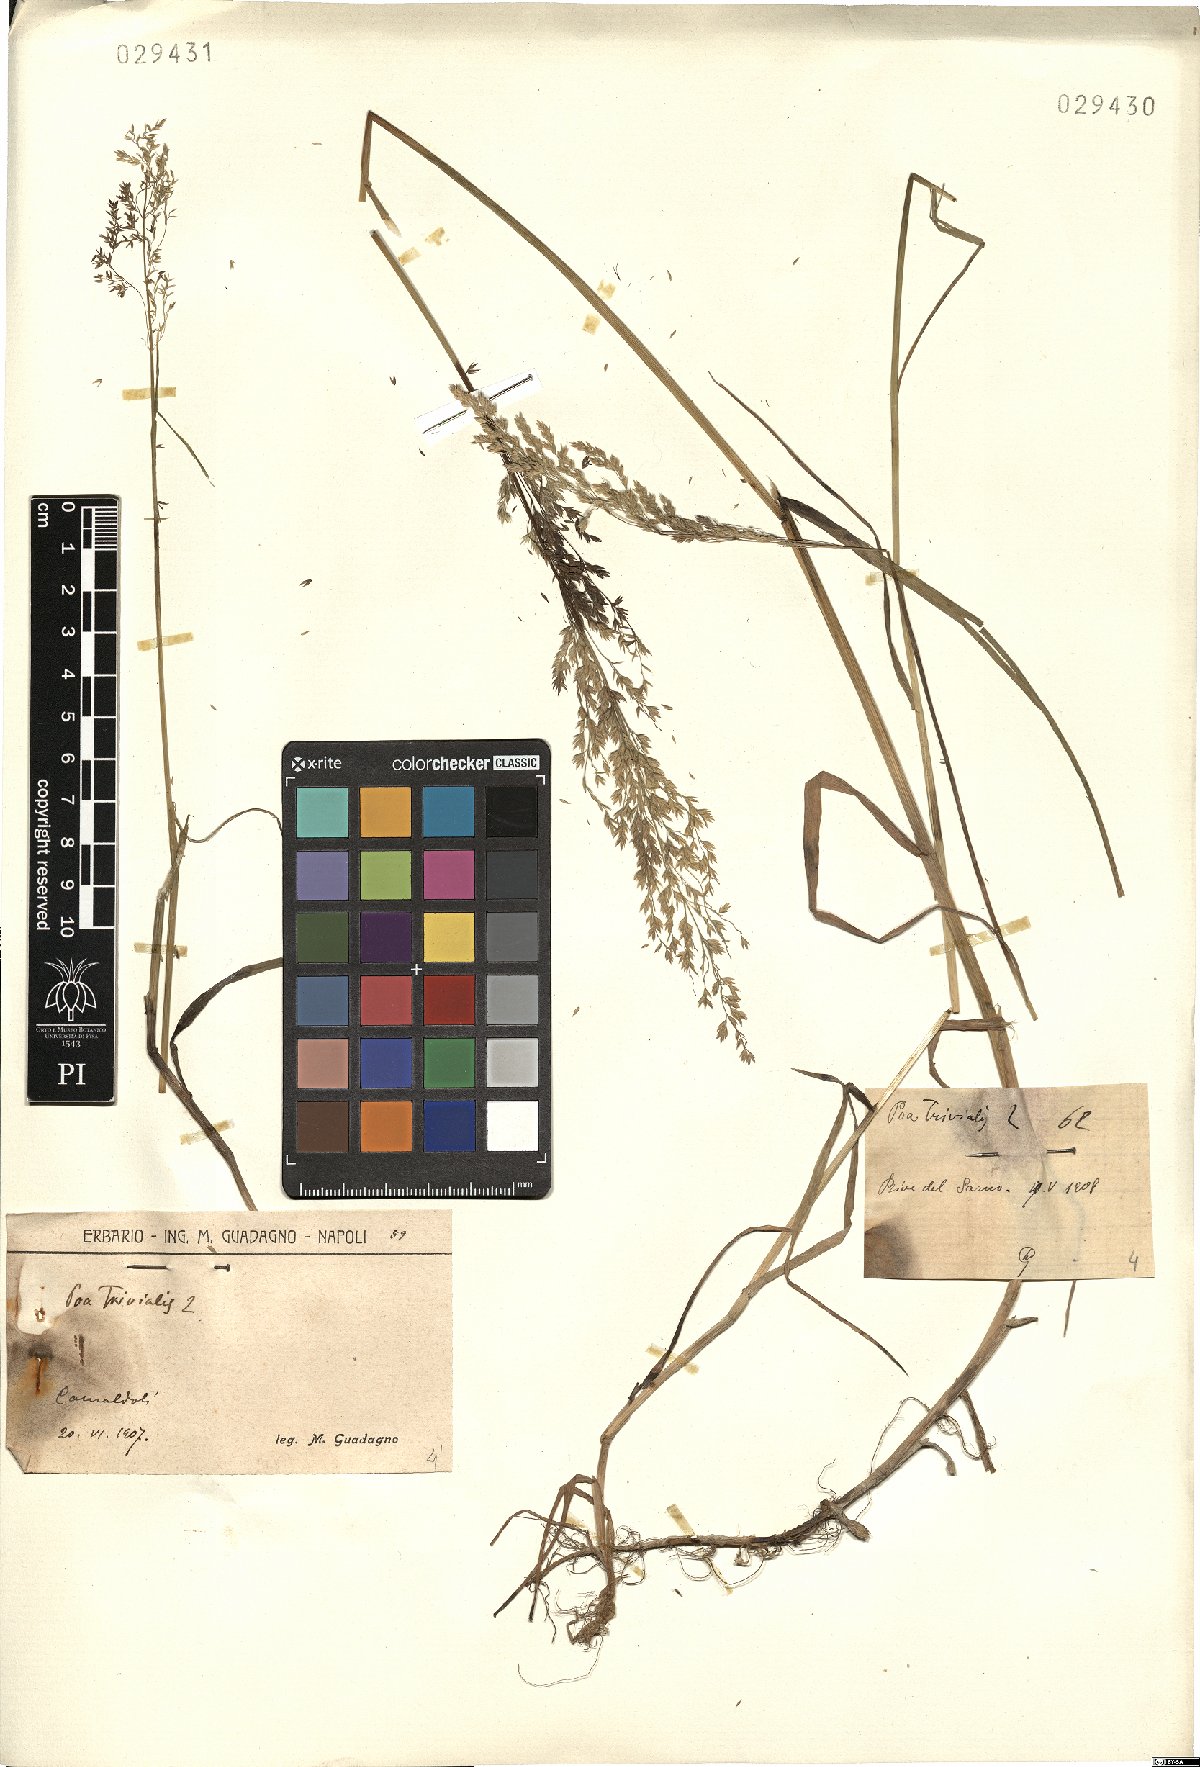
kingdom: Plantae
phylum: Tracheophyta
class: Liliopsida
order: Poales
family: Poaceae
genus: Poa
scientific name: Poa trivialis
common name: Rough bluegrass
